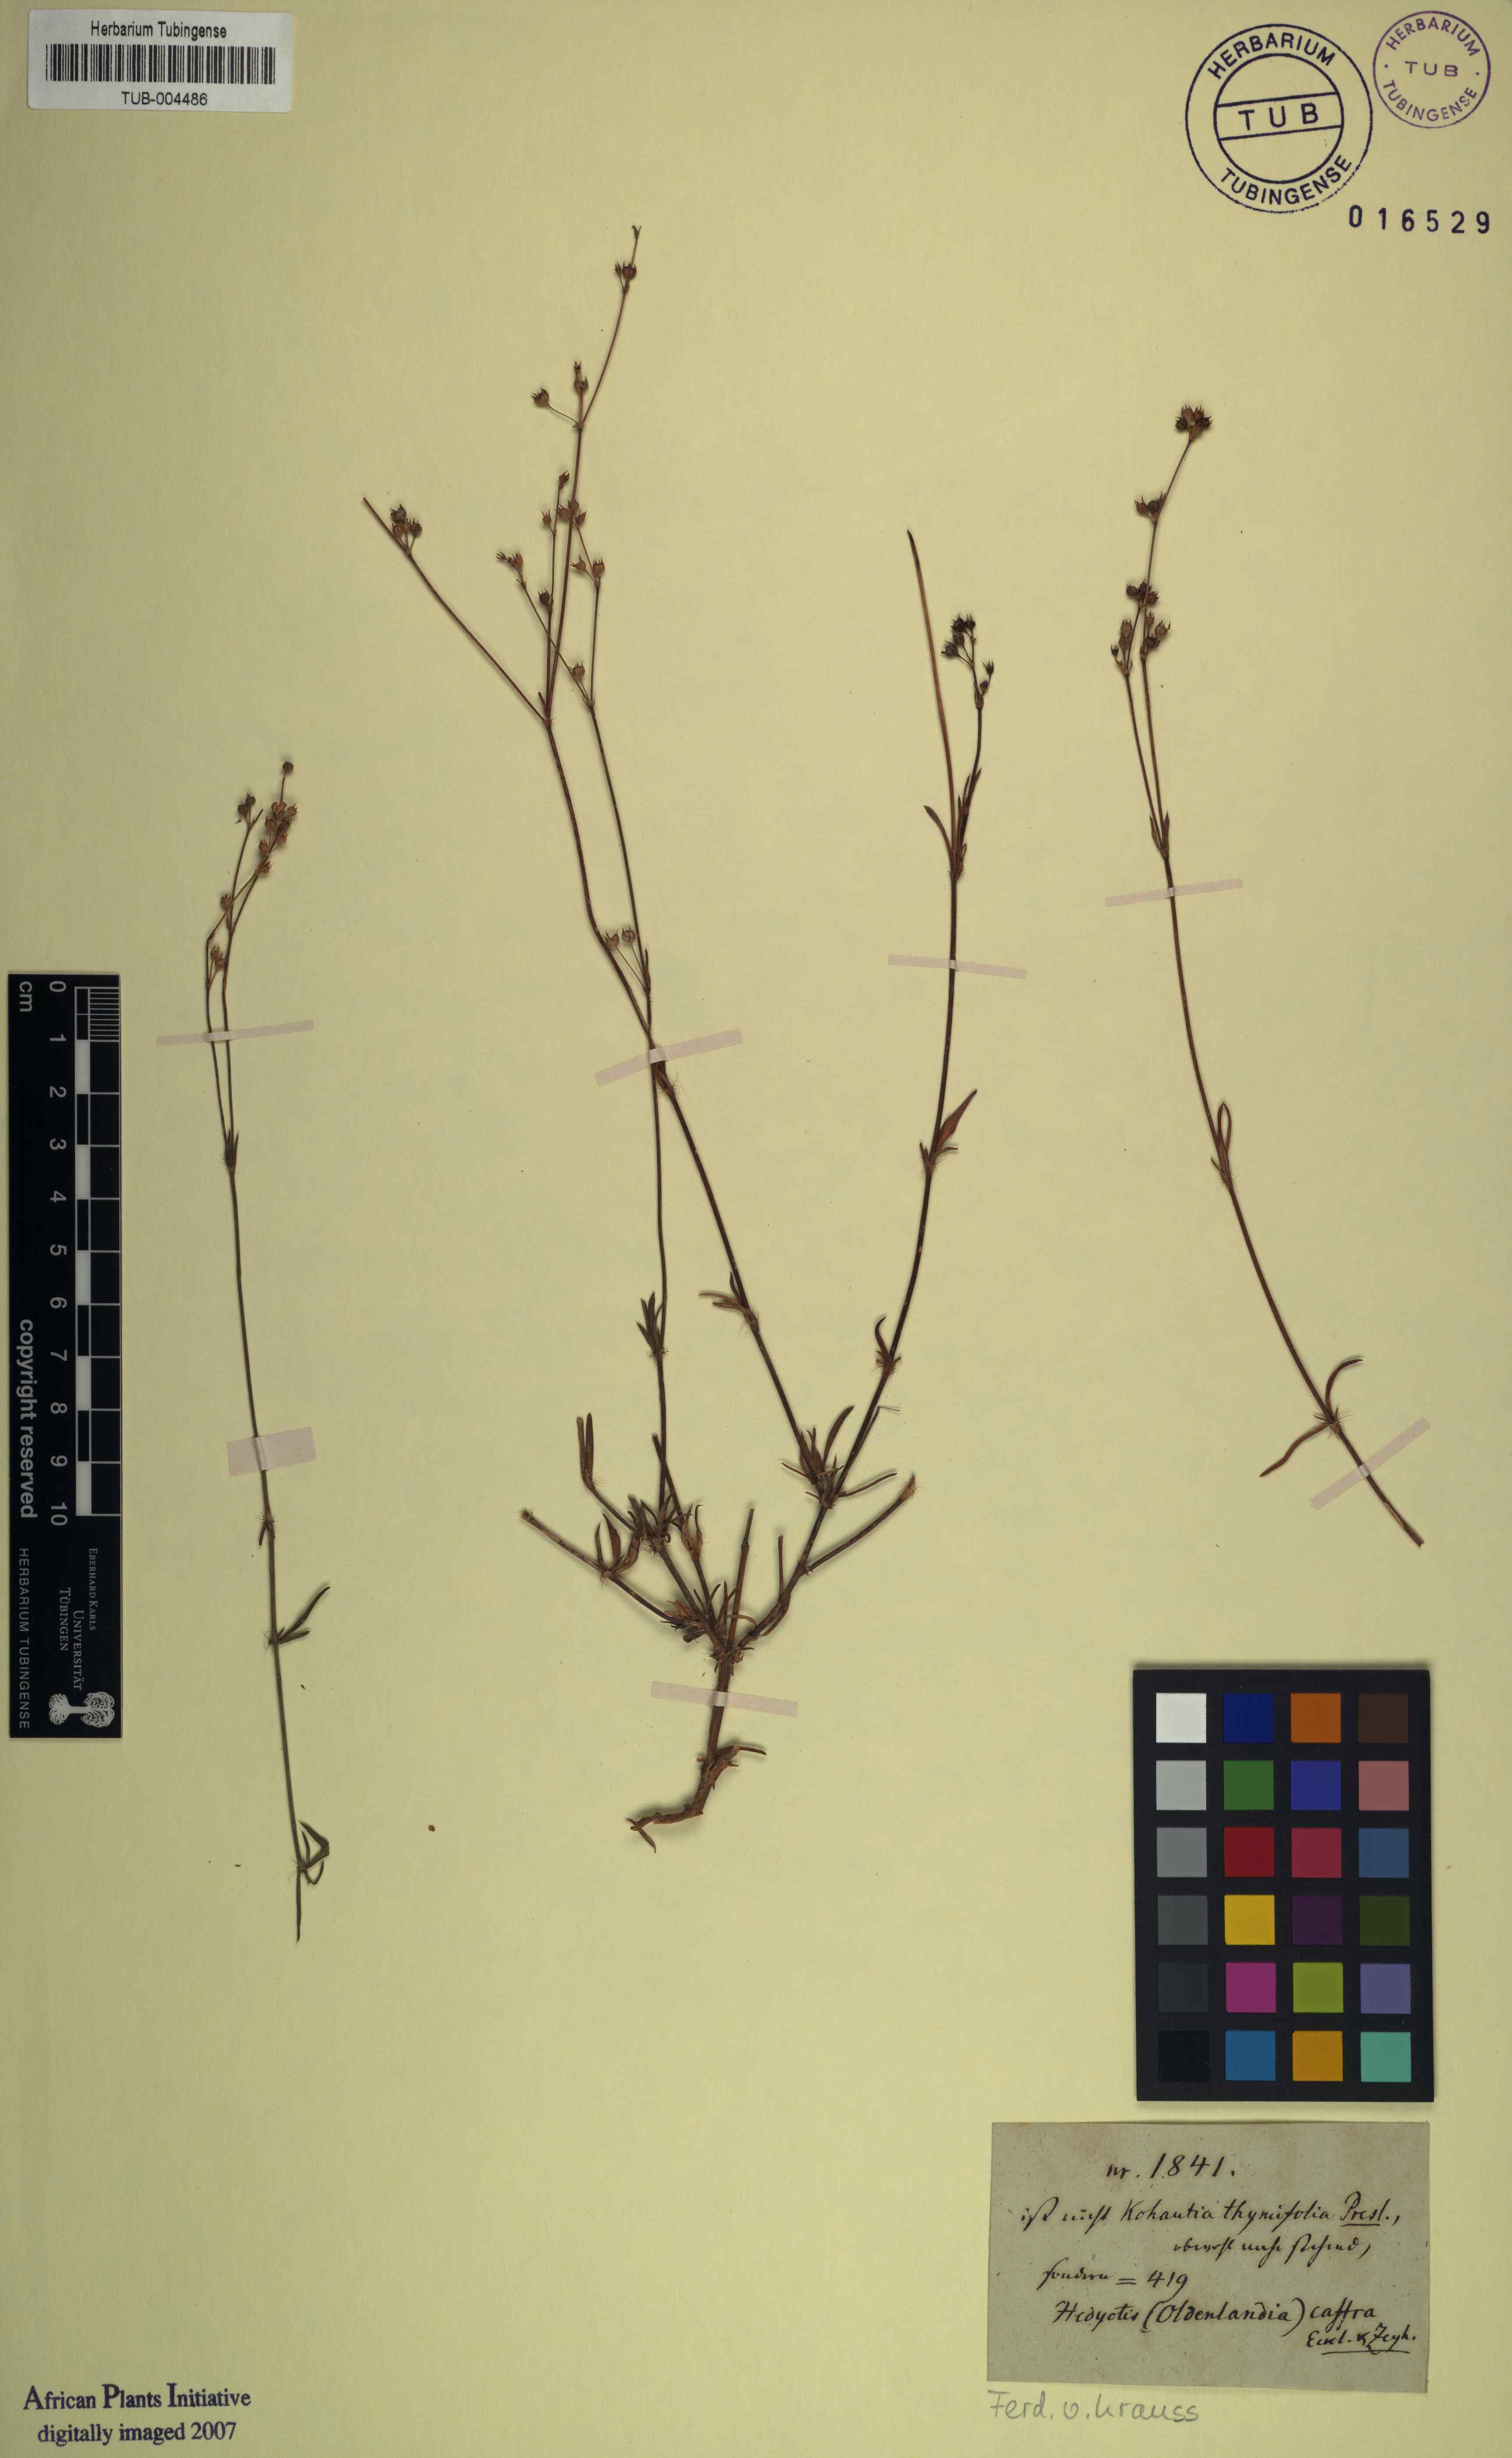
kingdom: Plantae
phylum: Tracheophyta
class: Magnoliopsida
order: Gentianales
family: Rubiaceae
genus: Cordylostigma
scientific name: Cordylostigma virgatum
